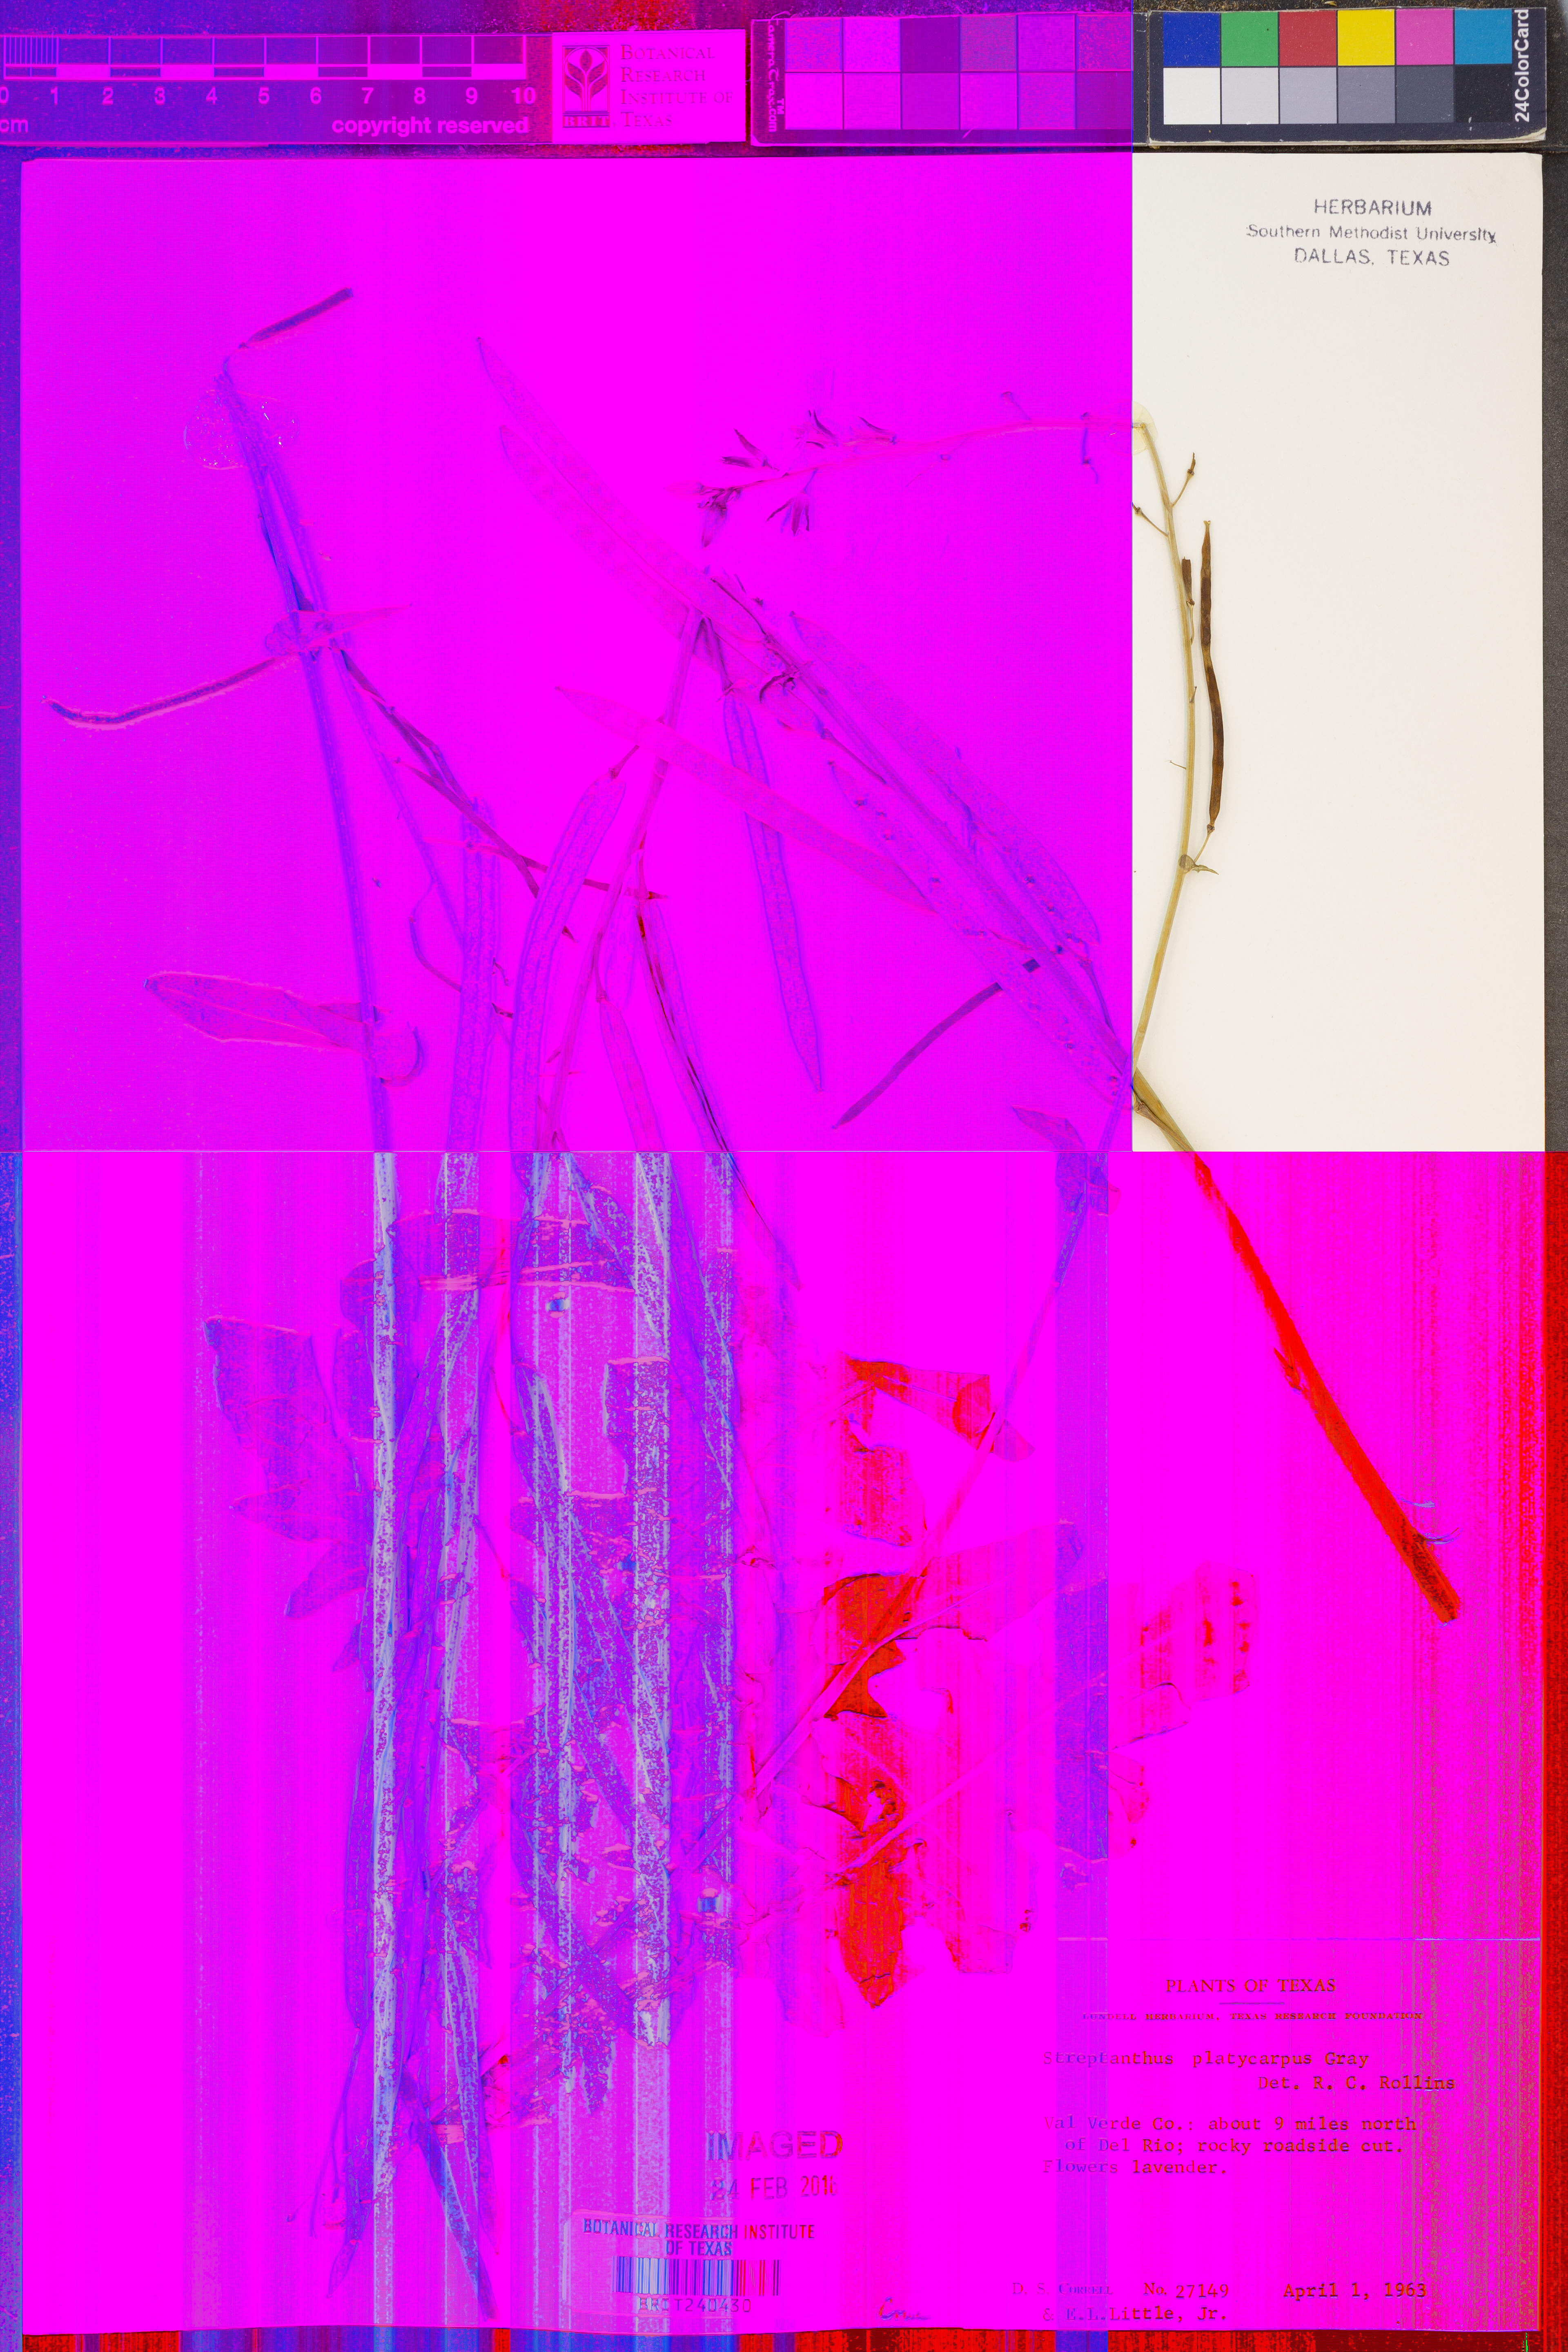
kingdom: Plantae
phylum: Tracheophyta
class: Magnoliopsida
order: Brassicales
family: Brassicaceae
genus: Streptanthus
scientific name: Streptanthus platycarpus
